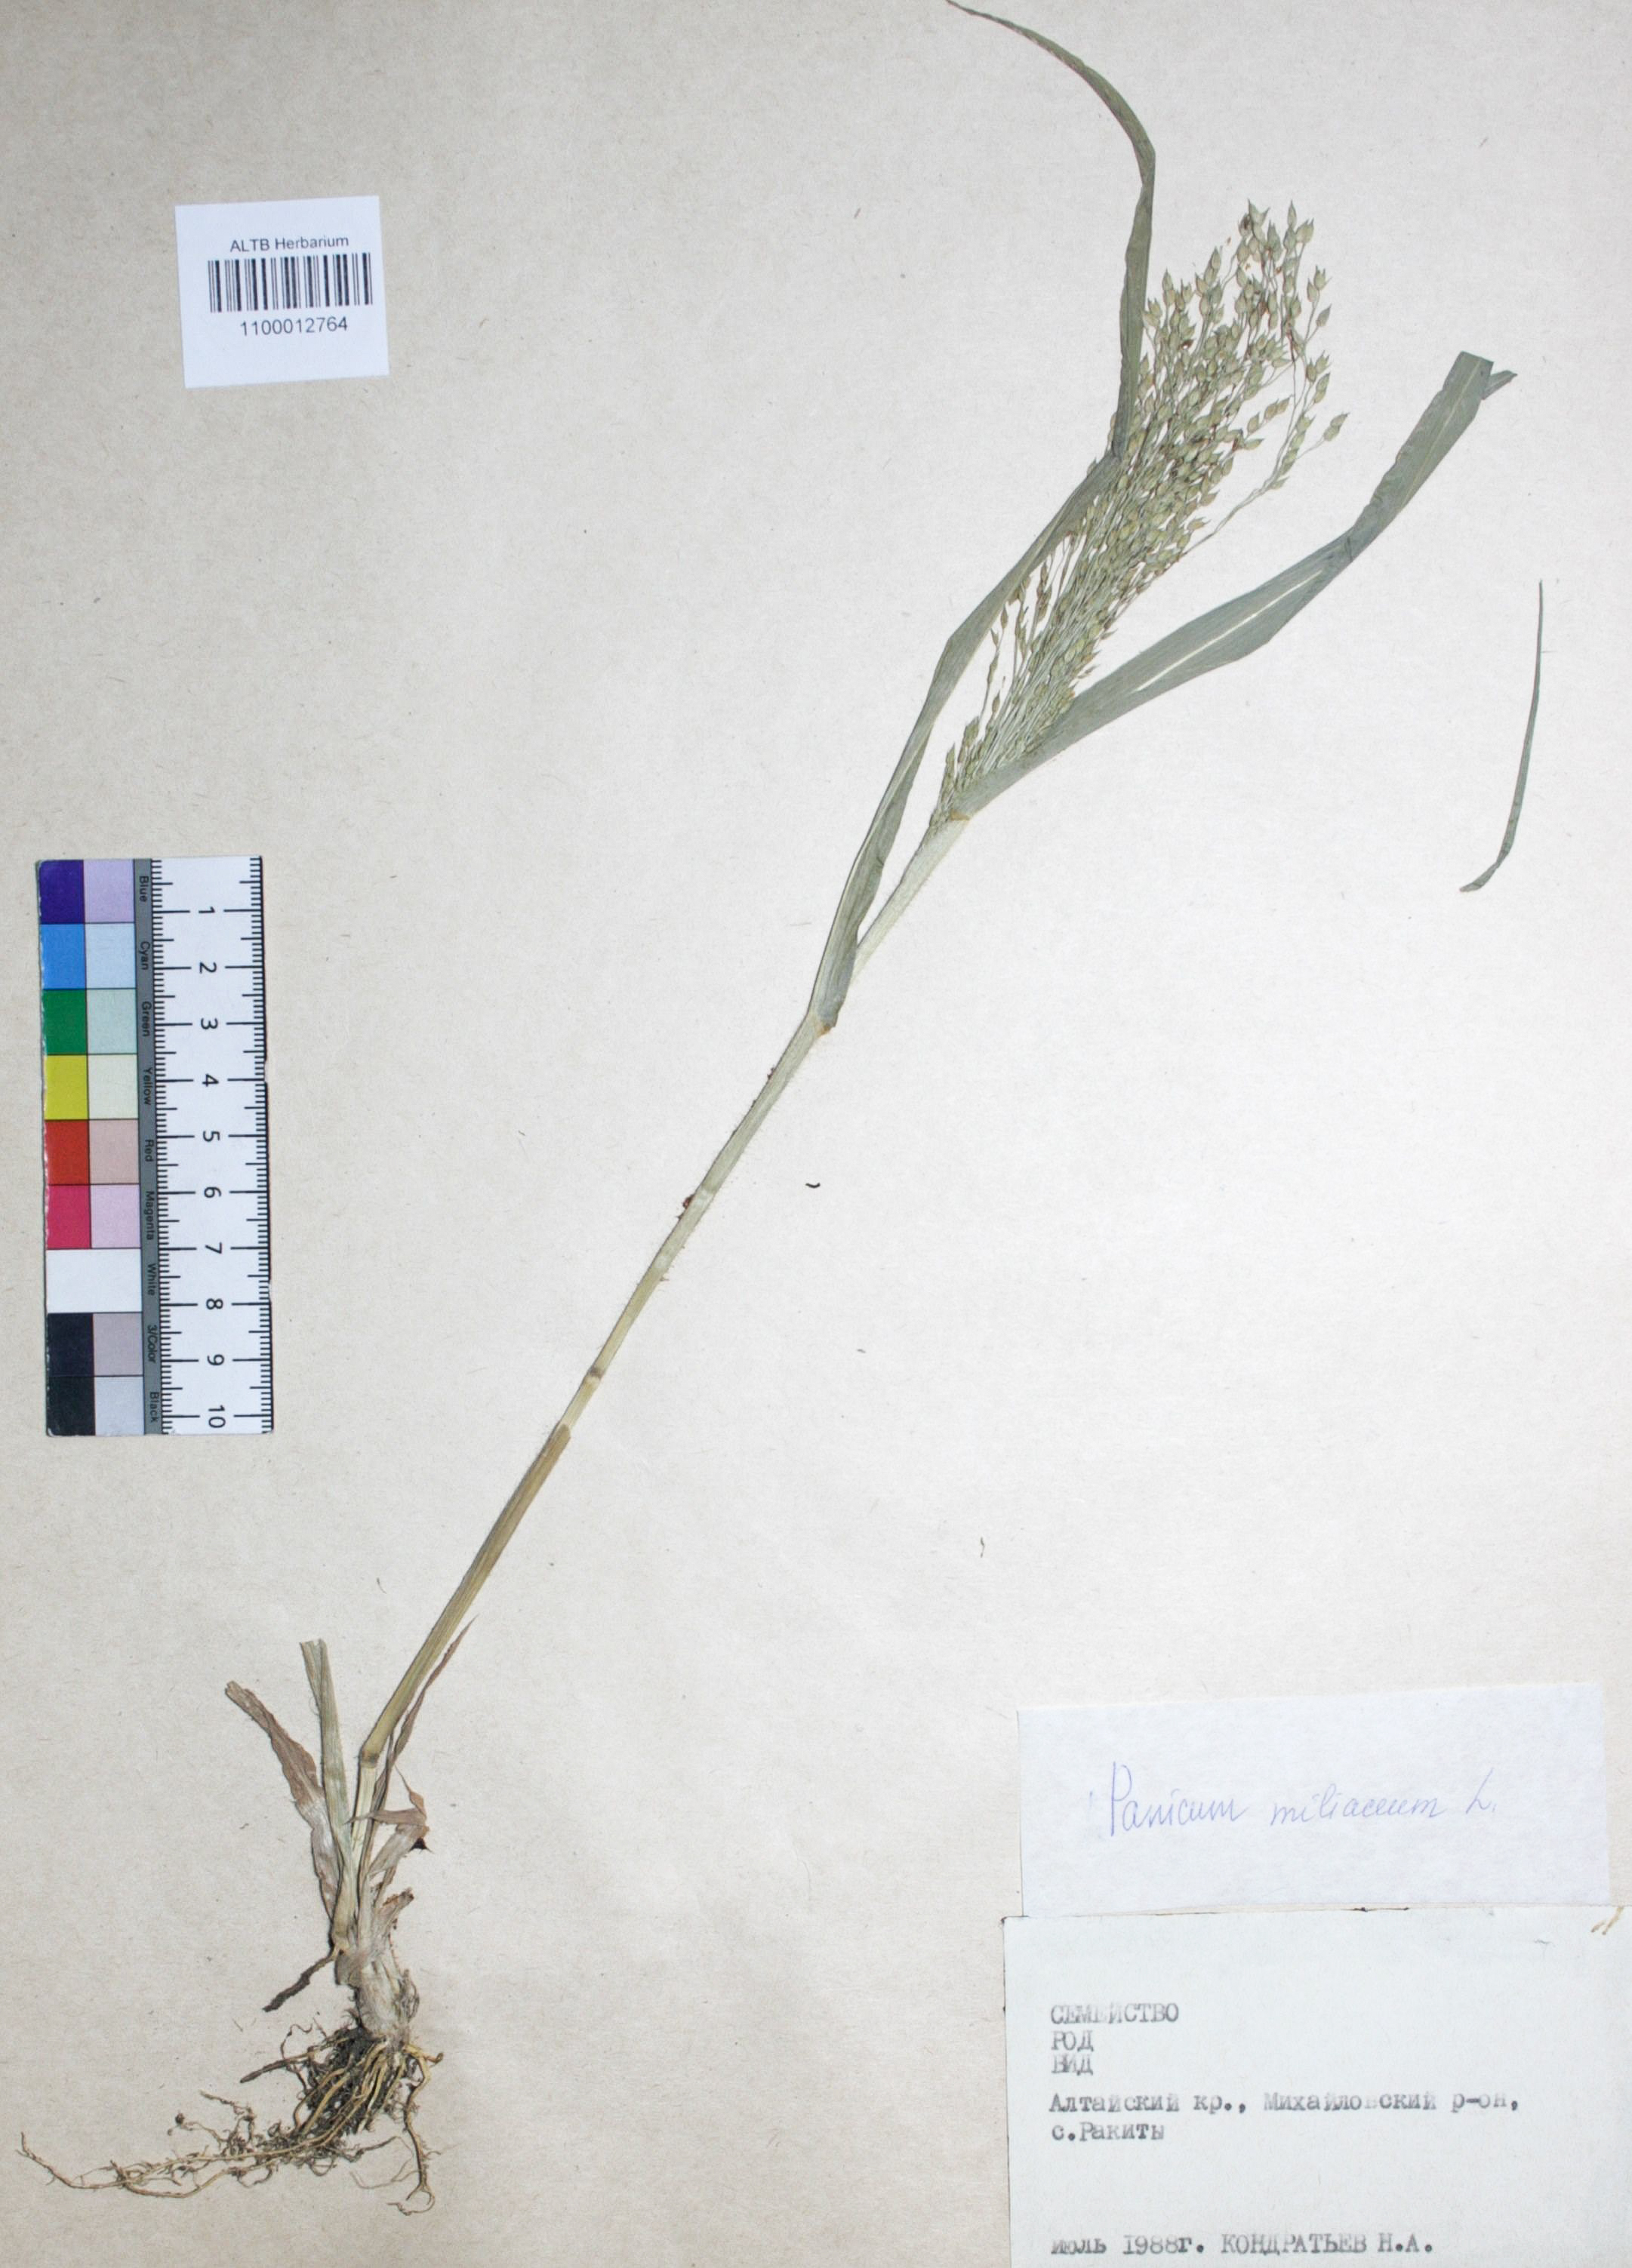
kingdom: Plantae
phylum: Tracheophyta
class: Liliopsida
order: Poales
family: Poaceae
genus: Panicum
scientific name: Panicum miliaceum
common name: Common millet
